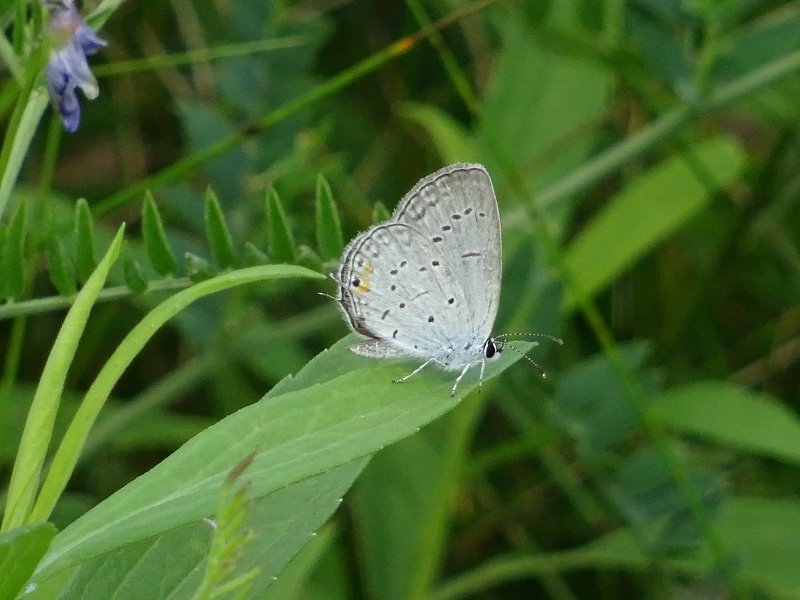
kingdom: Animalia
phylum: Arthropoda
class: Insecta
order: Lepidoptera
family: Lycaenidae
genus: Elkalyce
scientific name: Elkalyce comyntas
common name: Eastern Tailed-Blue
